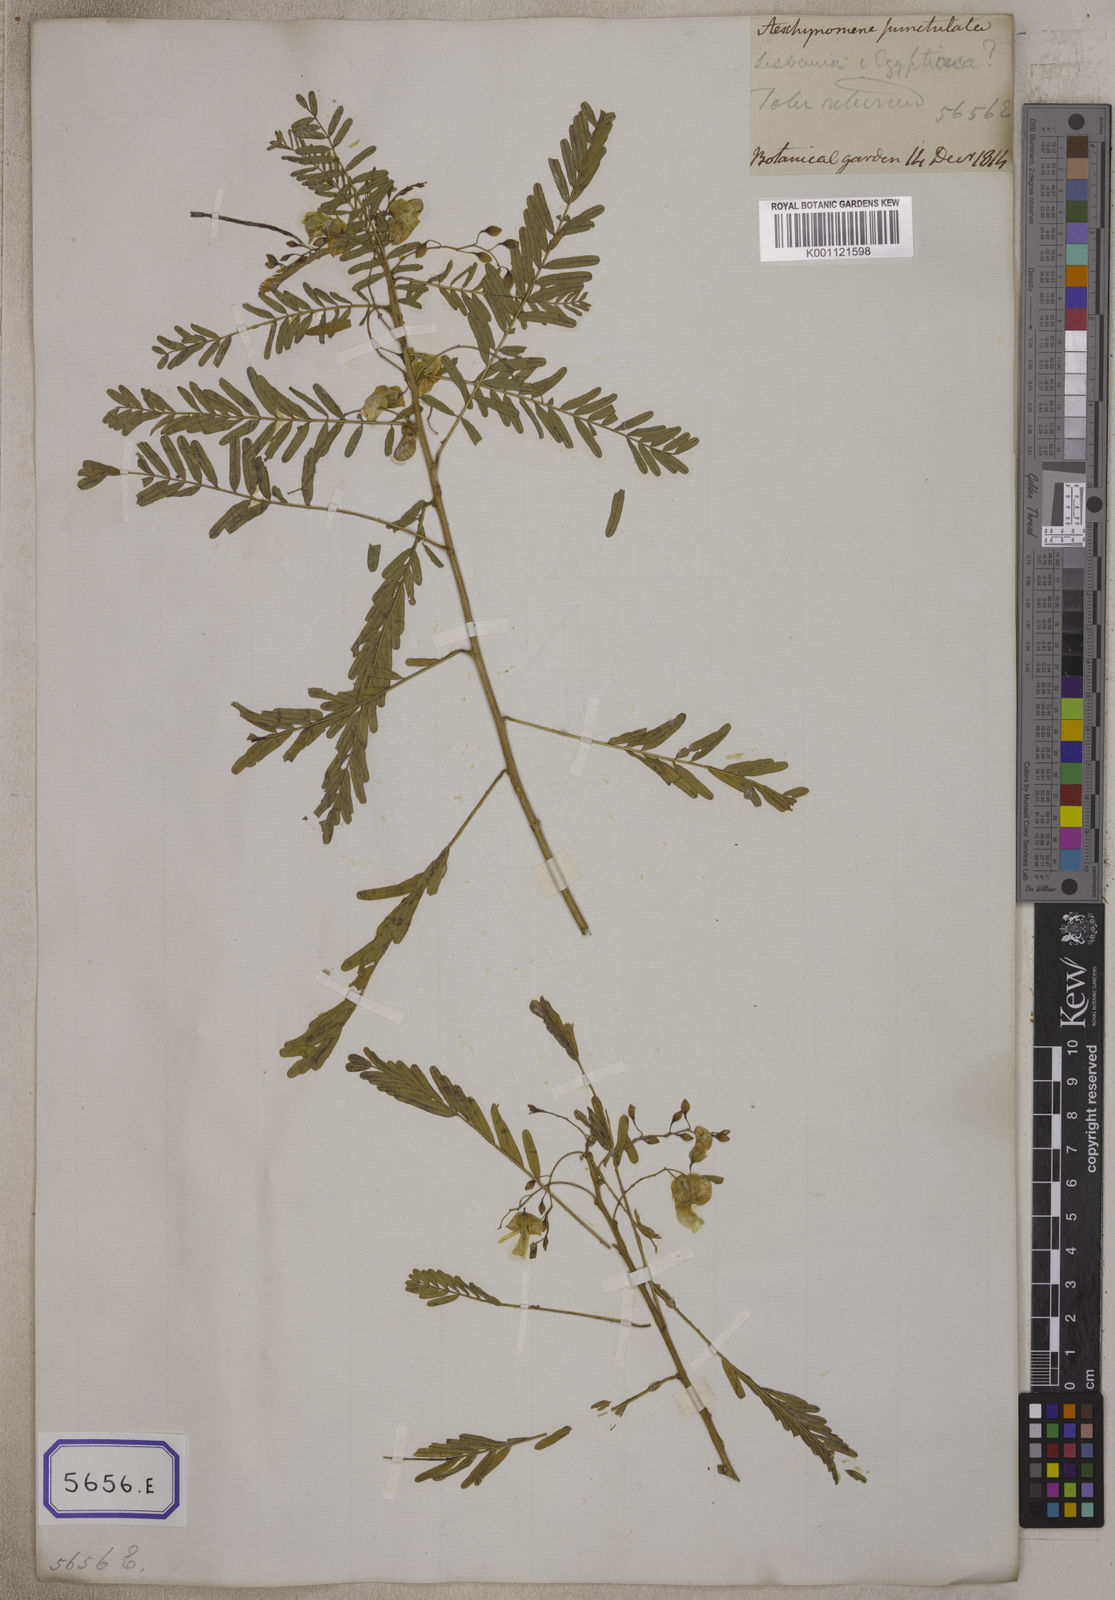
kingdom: Plantae
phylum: Tracheophyta
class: Magnoliopsida
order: Fabales
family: Fabaceae
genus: Sesbania
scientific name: Sesbania
